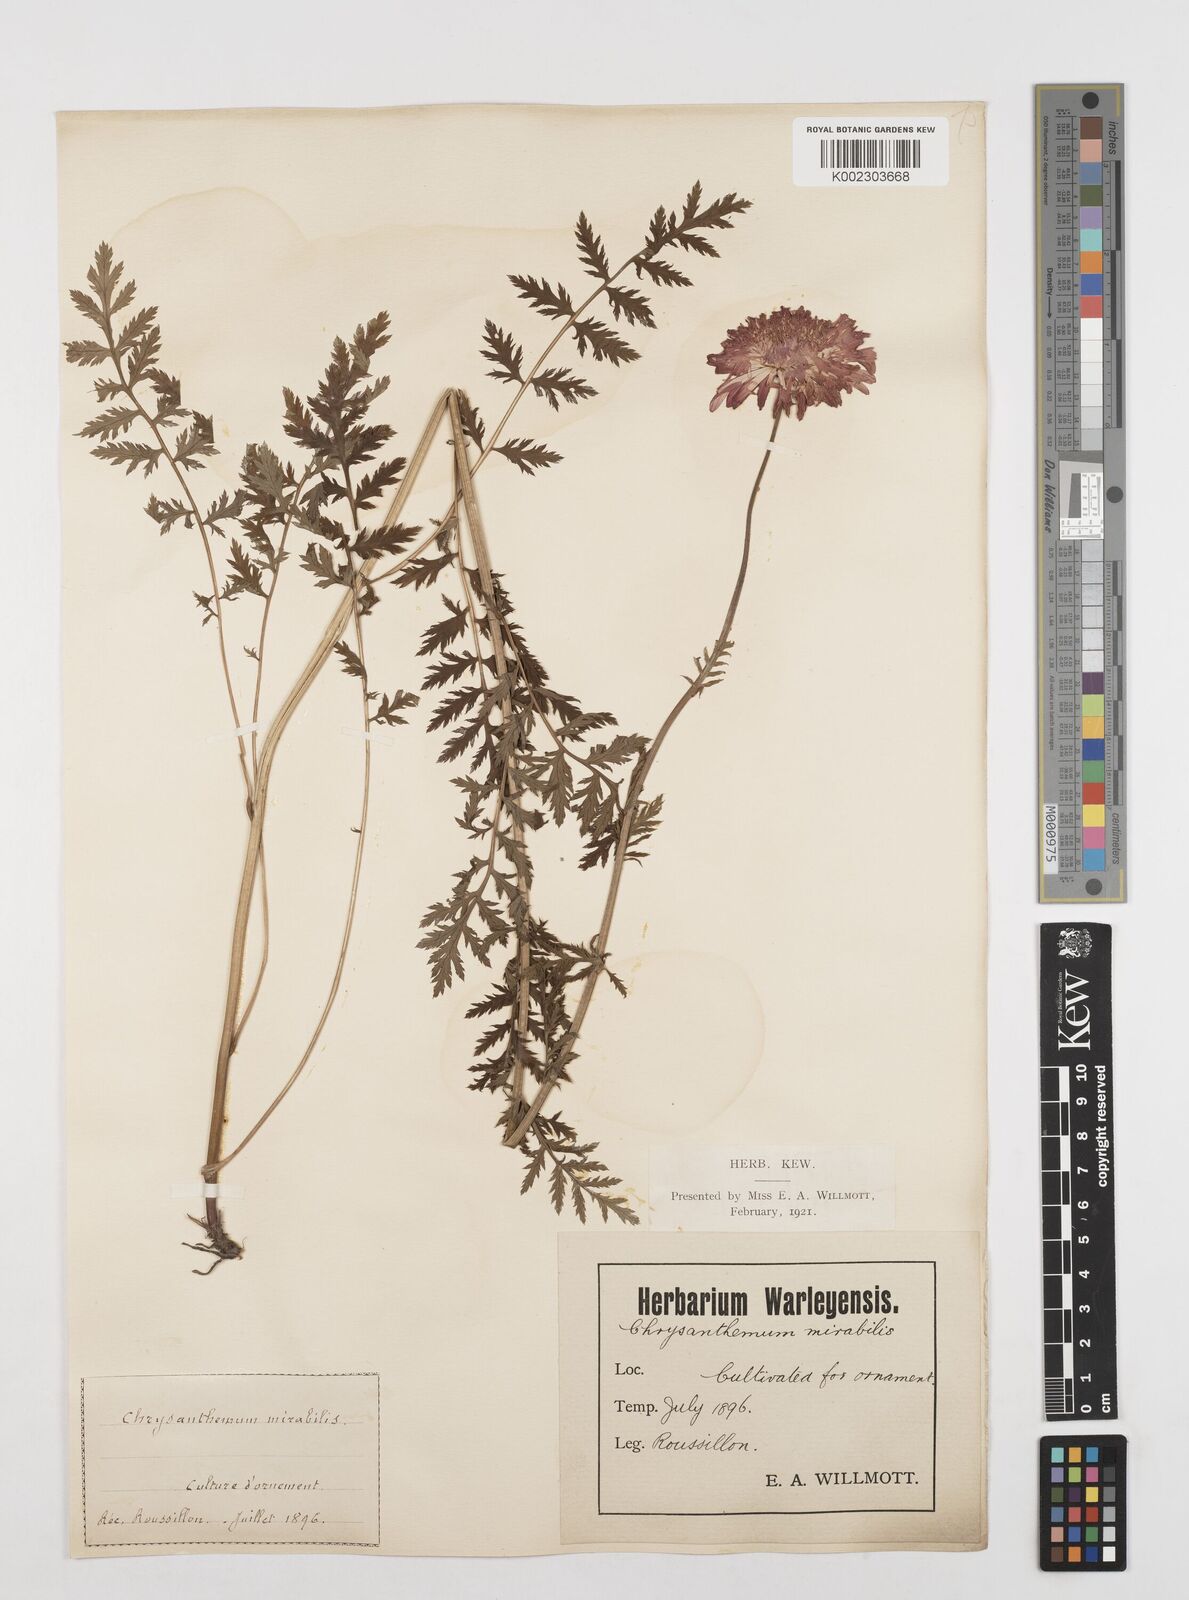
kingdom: Plantae
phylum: Tracheophyta
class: Magnoliopsida
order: Asterales
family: Asteraceae
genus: Tanacetum
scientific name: Tanacetum coccineum
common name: Pyrethum daisy
